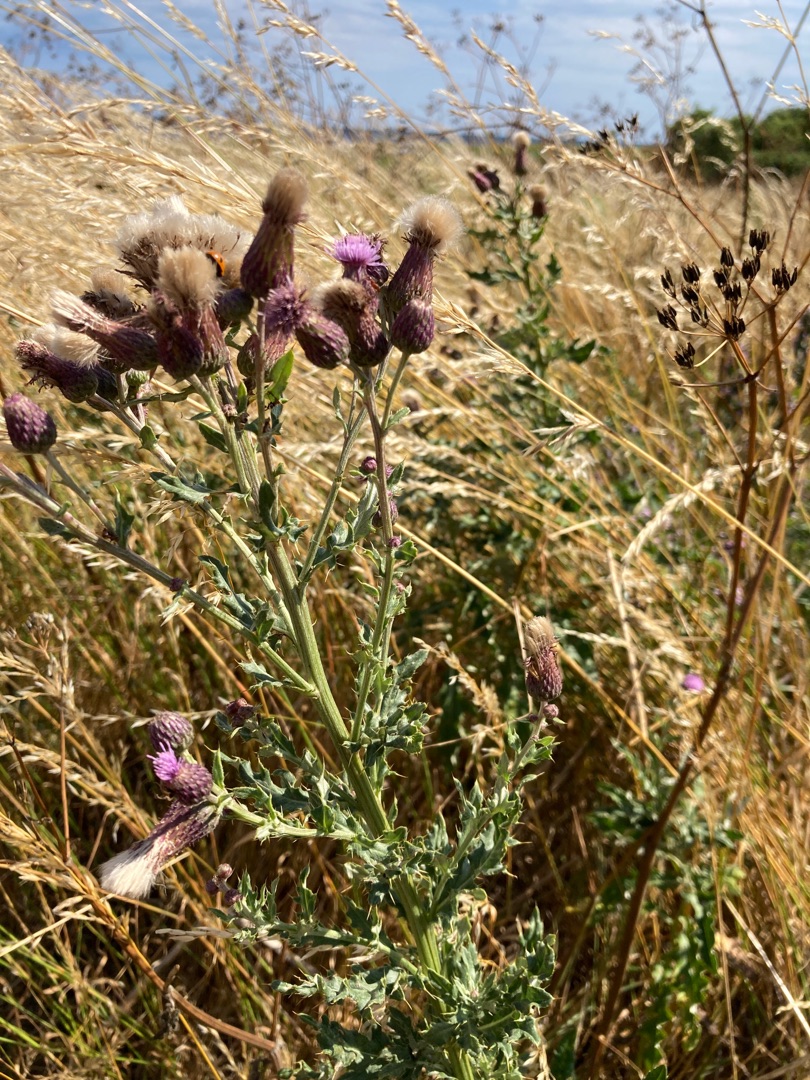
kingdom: Plantae
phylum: Tracheophyta
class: Magnoliopsida
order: Asterales
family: Asteraceae
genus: Cirsium
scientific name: Cirsium arvense
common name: Ager-tidsel
